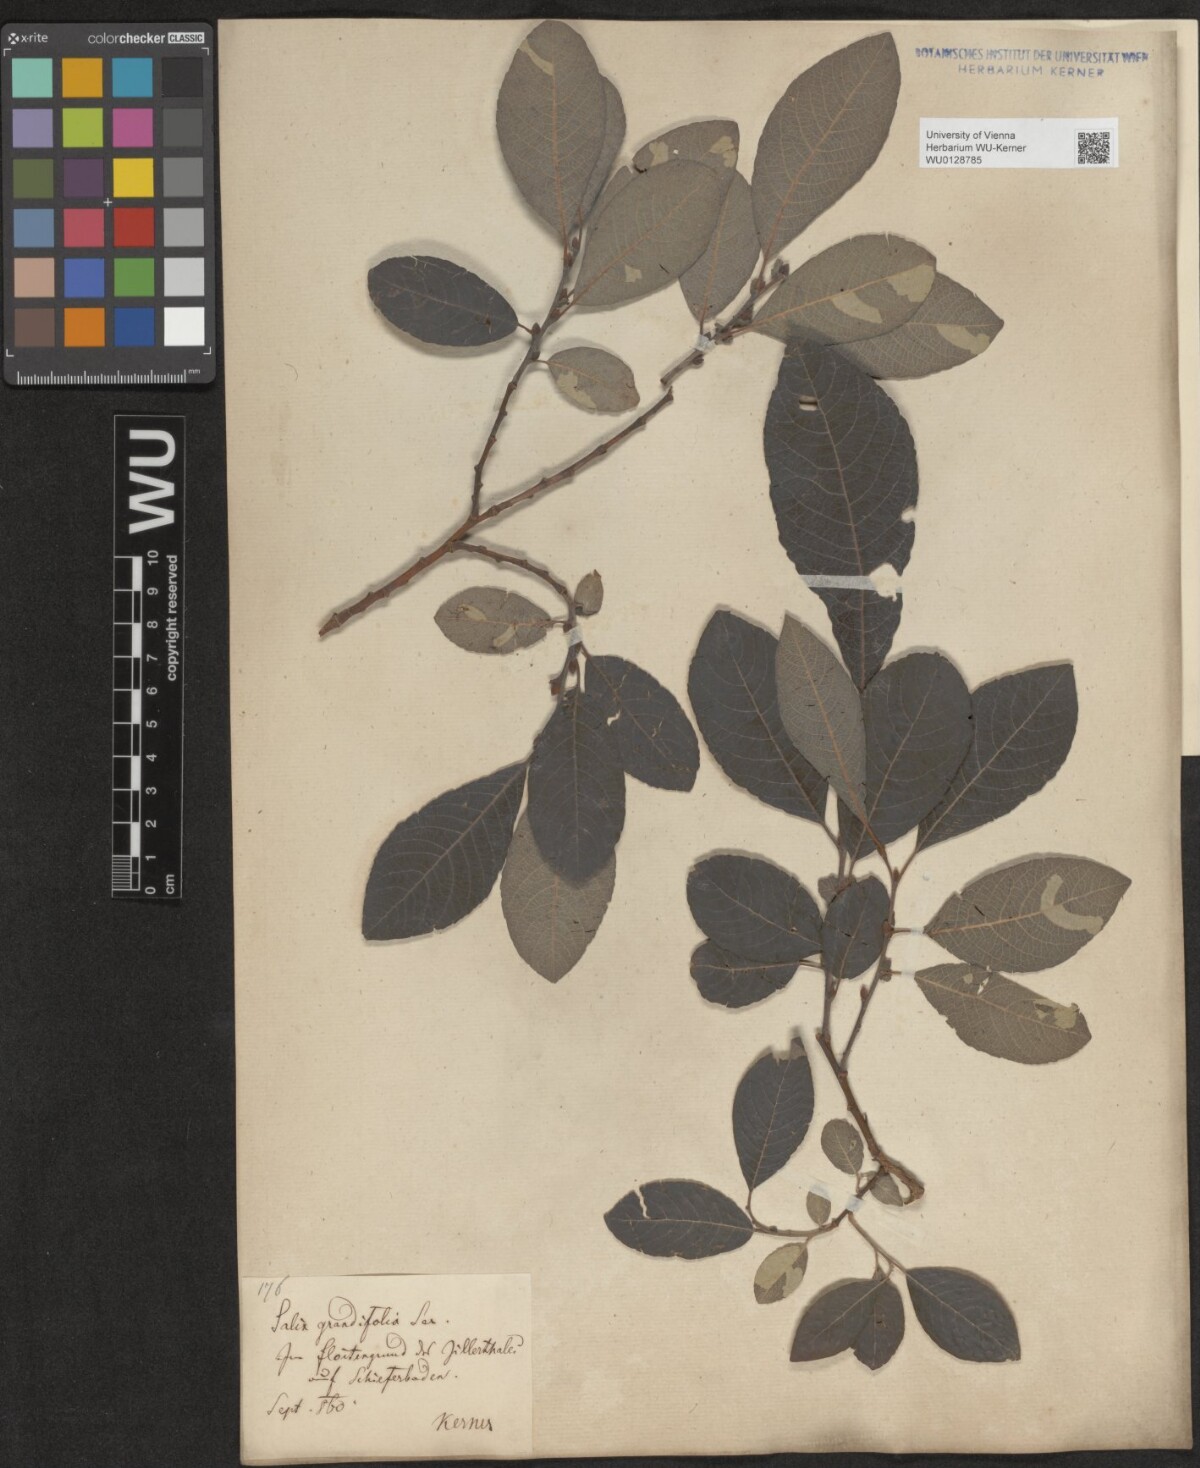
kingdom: Plantae
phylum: Tracheophyta
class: Magnoliopsida
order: Malpighiales
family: Salicaceae
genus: Salix
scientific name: Salix appendiculata
